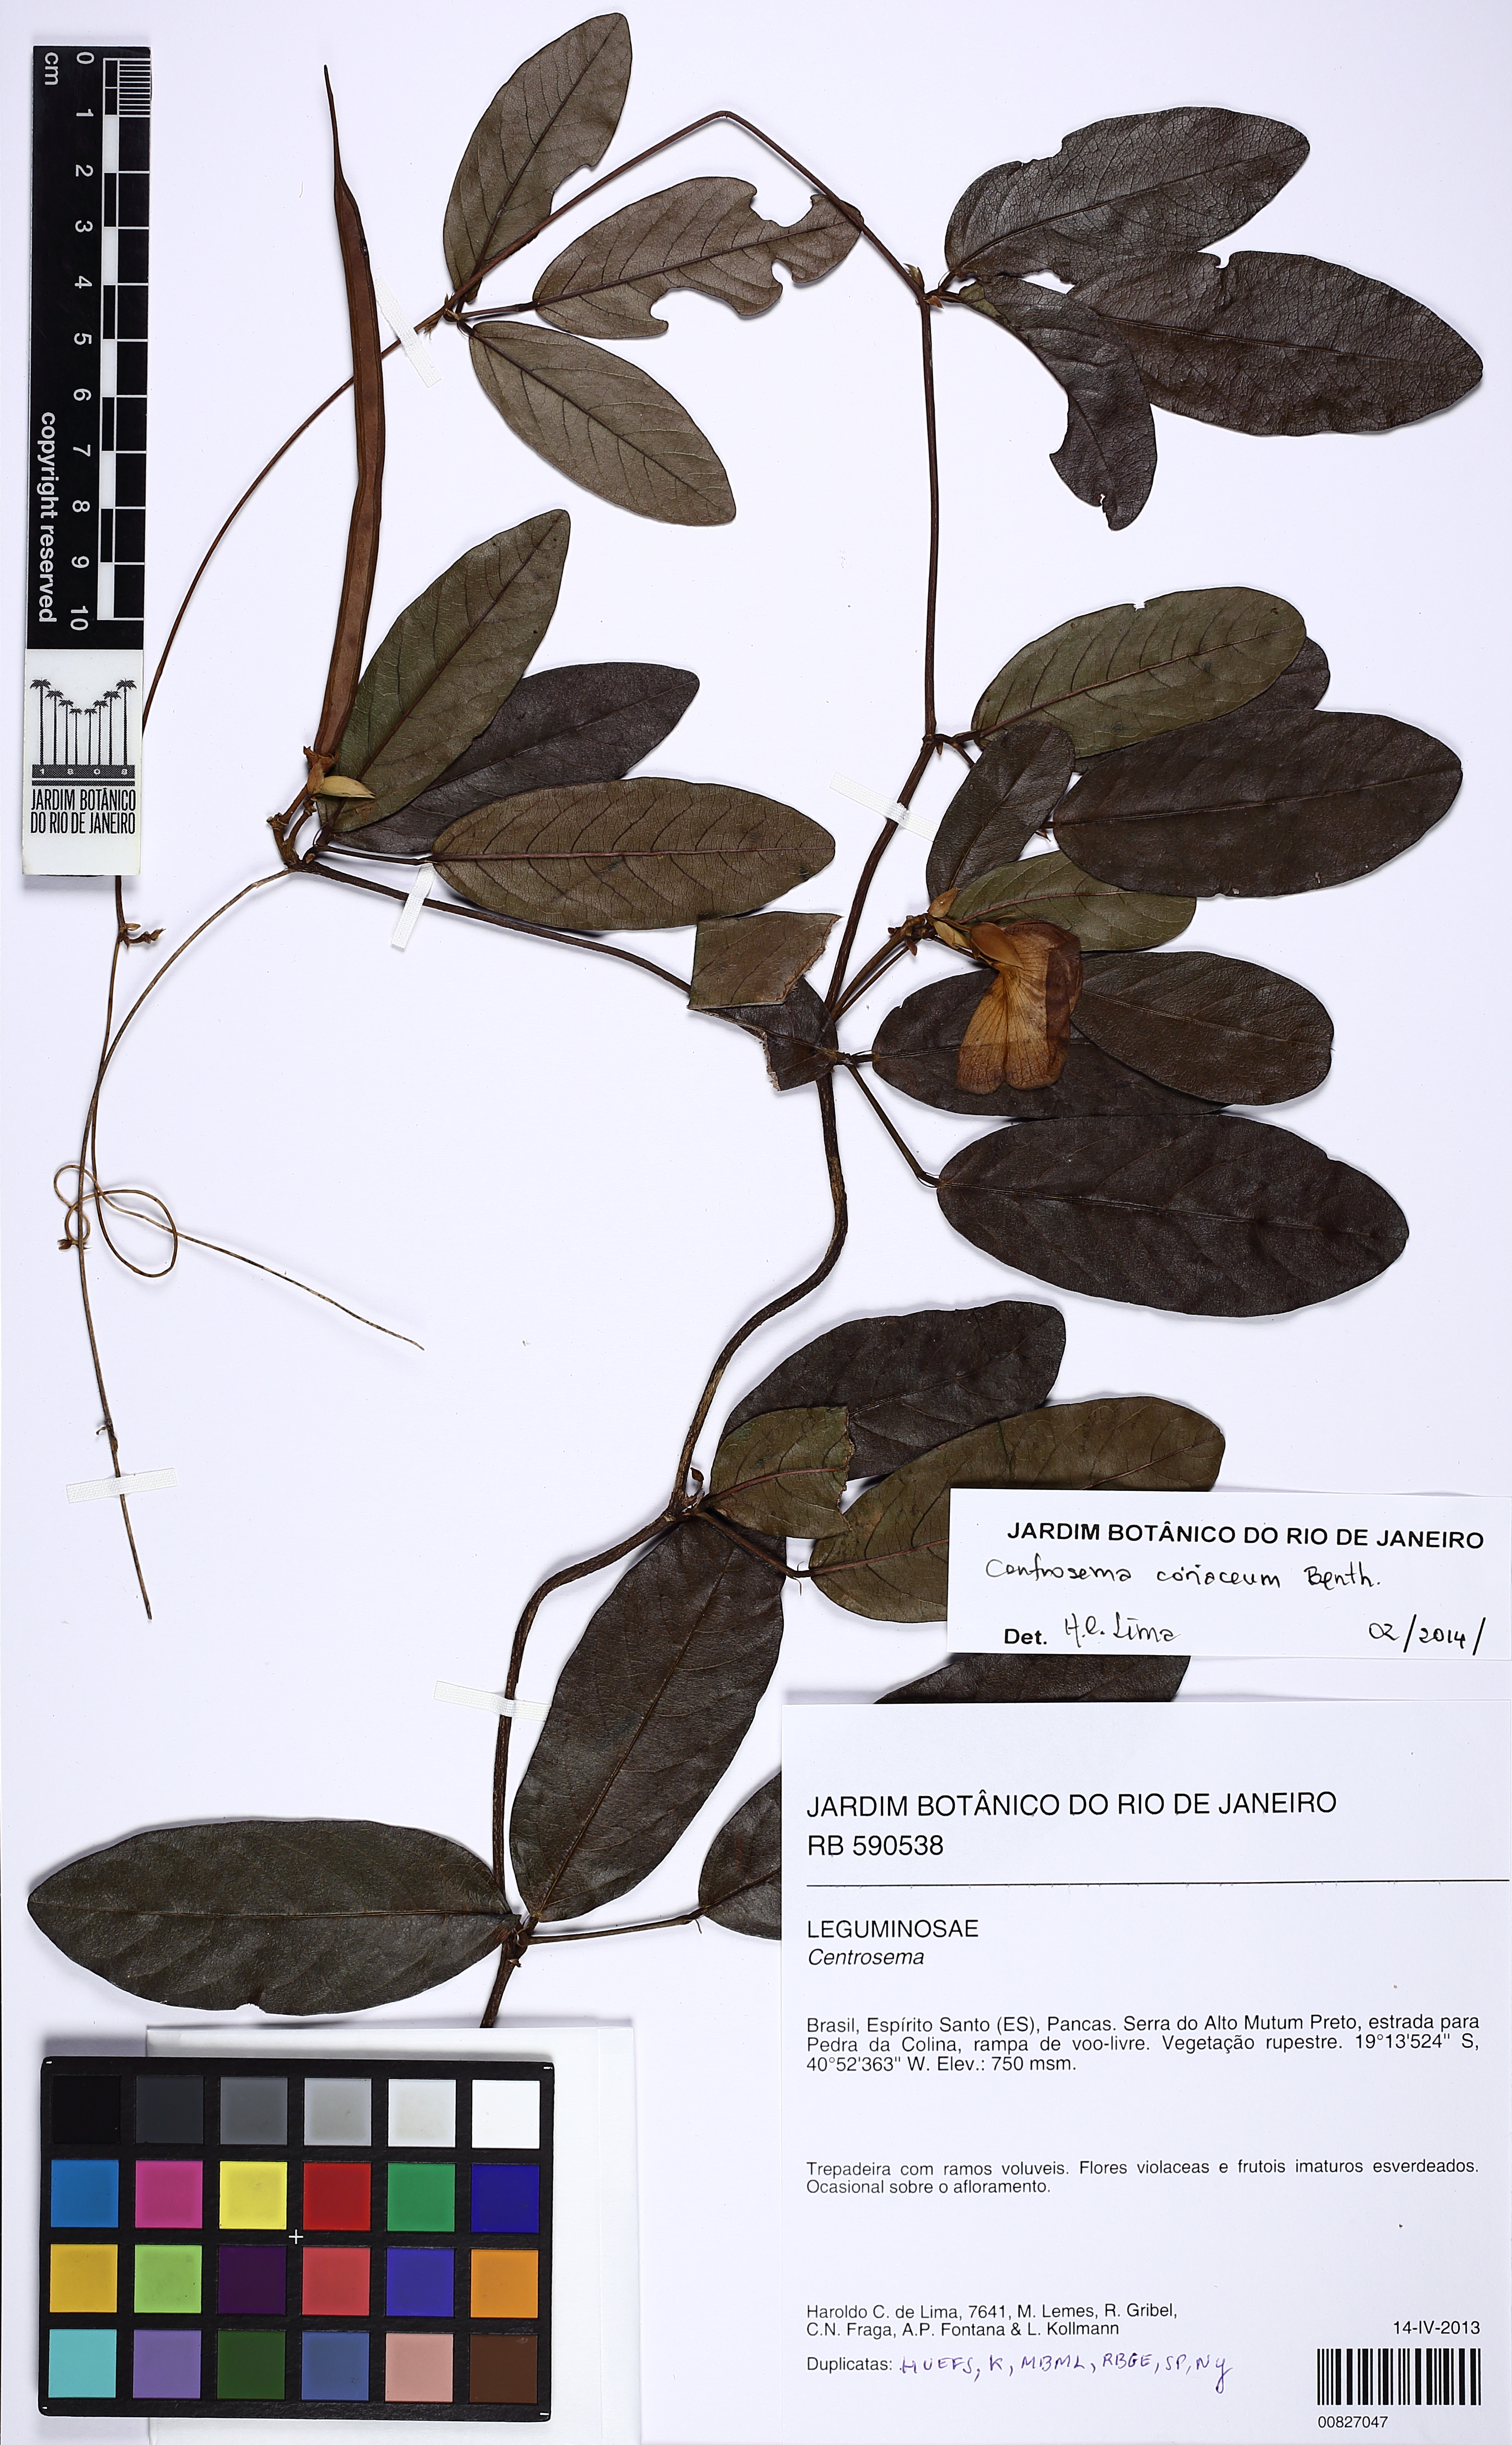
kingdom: Plantae
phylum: Tracheophyta
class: Magnoliopsida
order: Fabales
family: Fabaceae
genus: Centrosema
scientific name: Centrosema coriaceum
